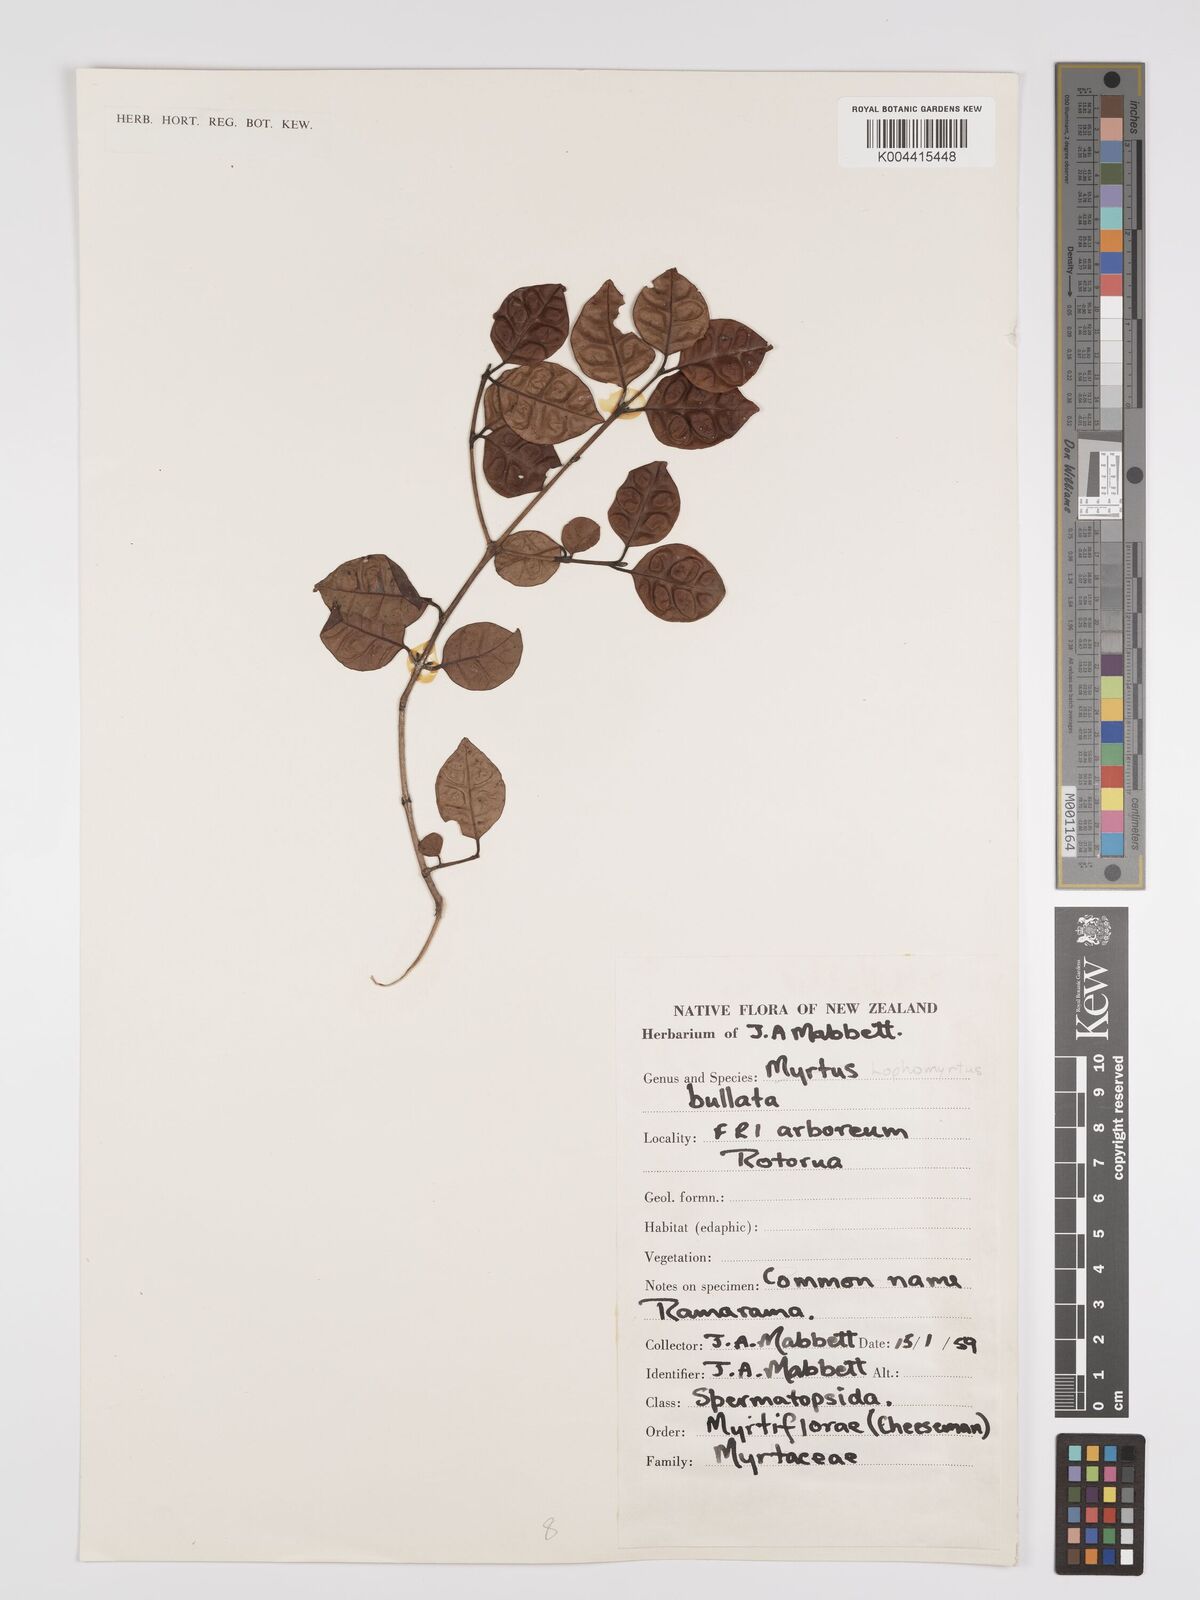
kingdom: Plantae
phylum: Tracheophyta
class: Magnoliopsida
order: Myrtales
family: Myrtaceae
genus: Lophomyrtus
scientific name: Lophomyrtus bullata
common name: Rama rama
